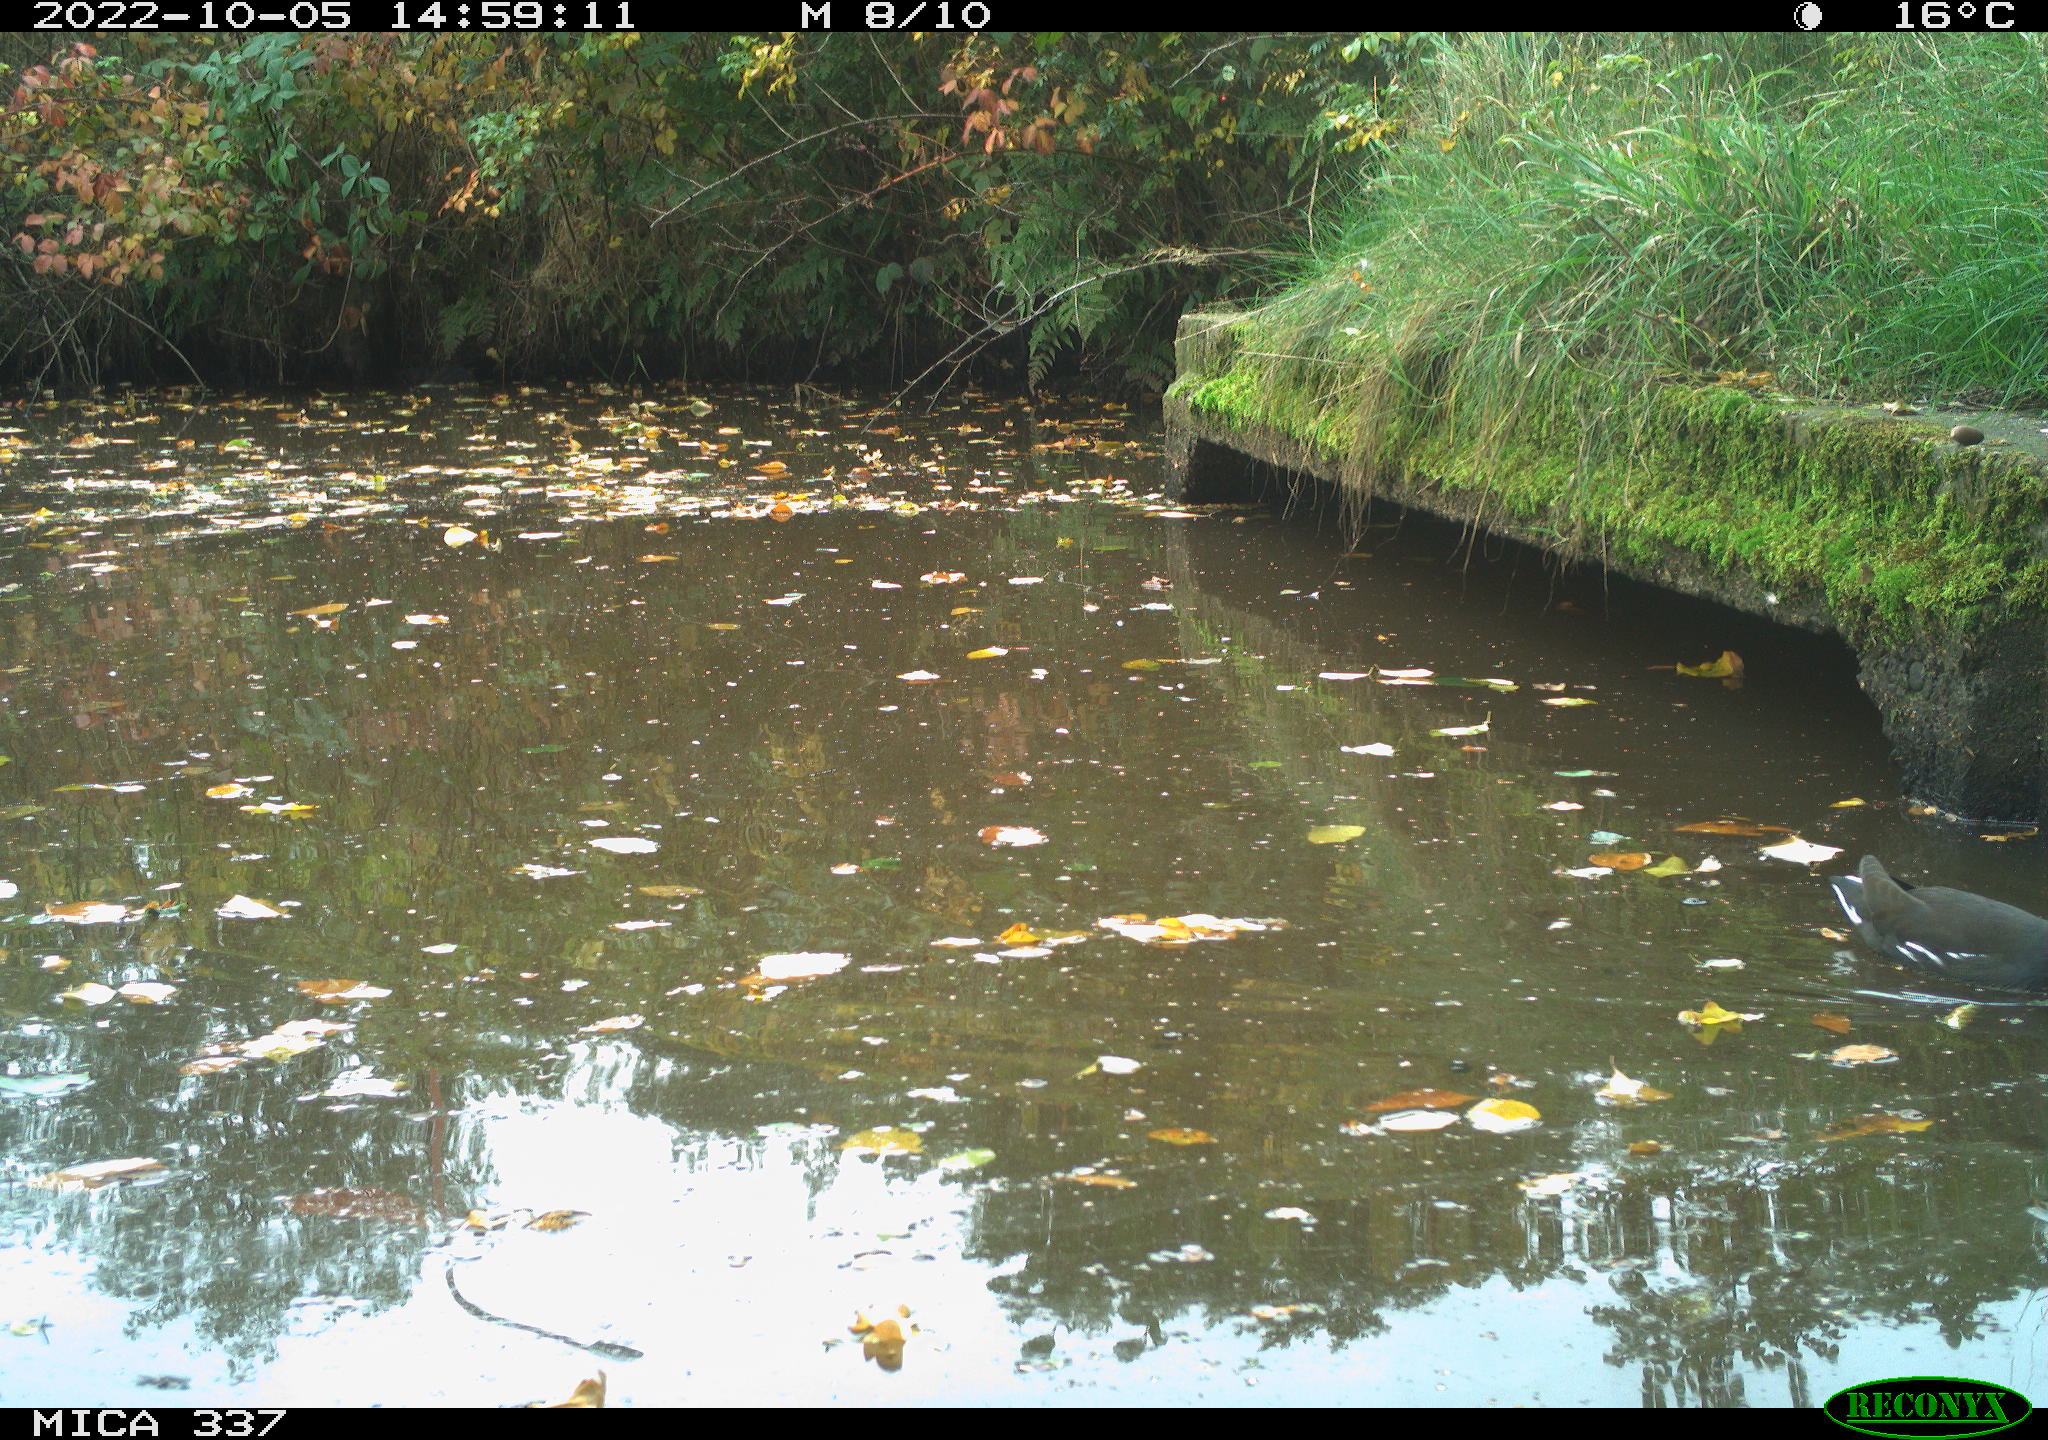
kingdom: Animalia
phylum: Chordata
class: Aves
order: Gruiformes
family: Rallidae
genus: Gallinula
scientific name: Gallinula chloropus
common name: Common moorhen
